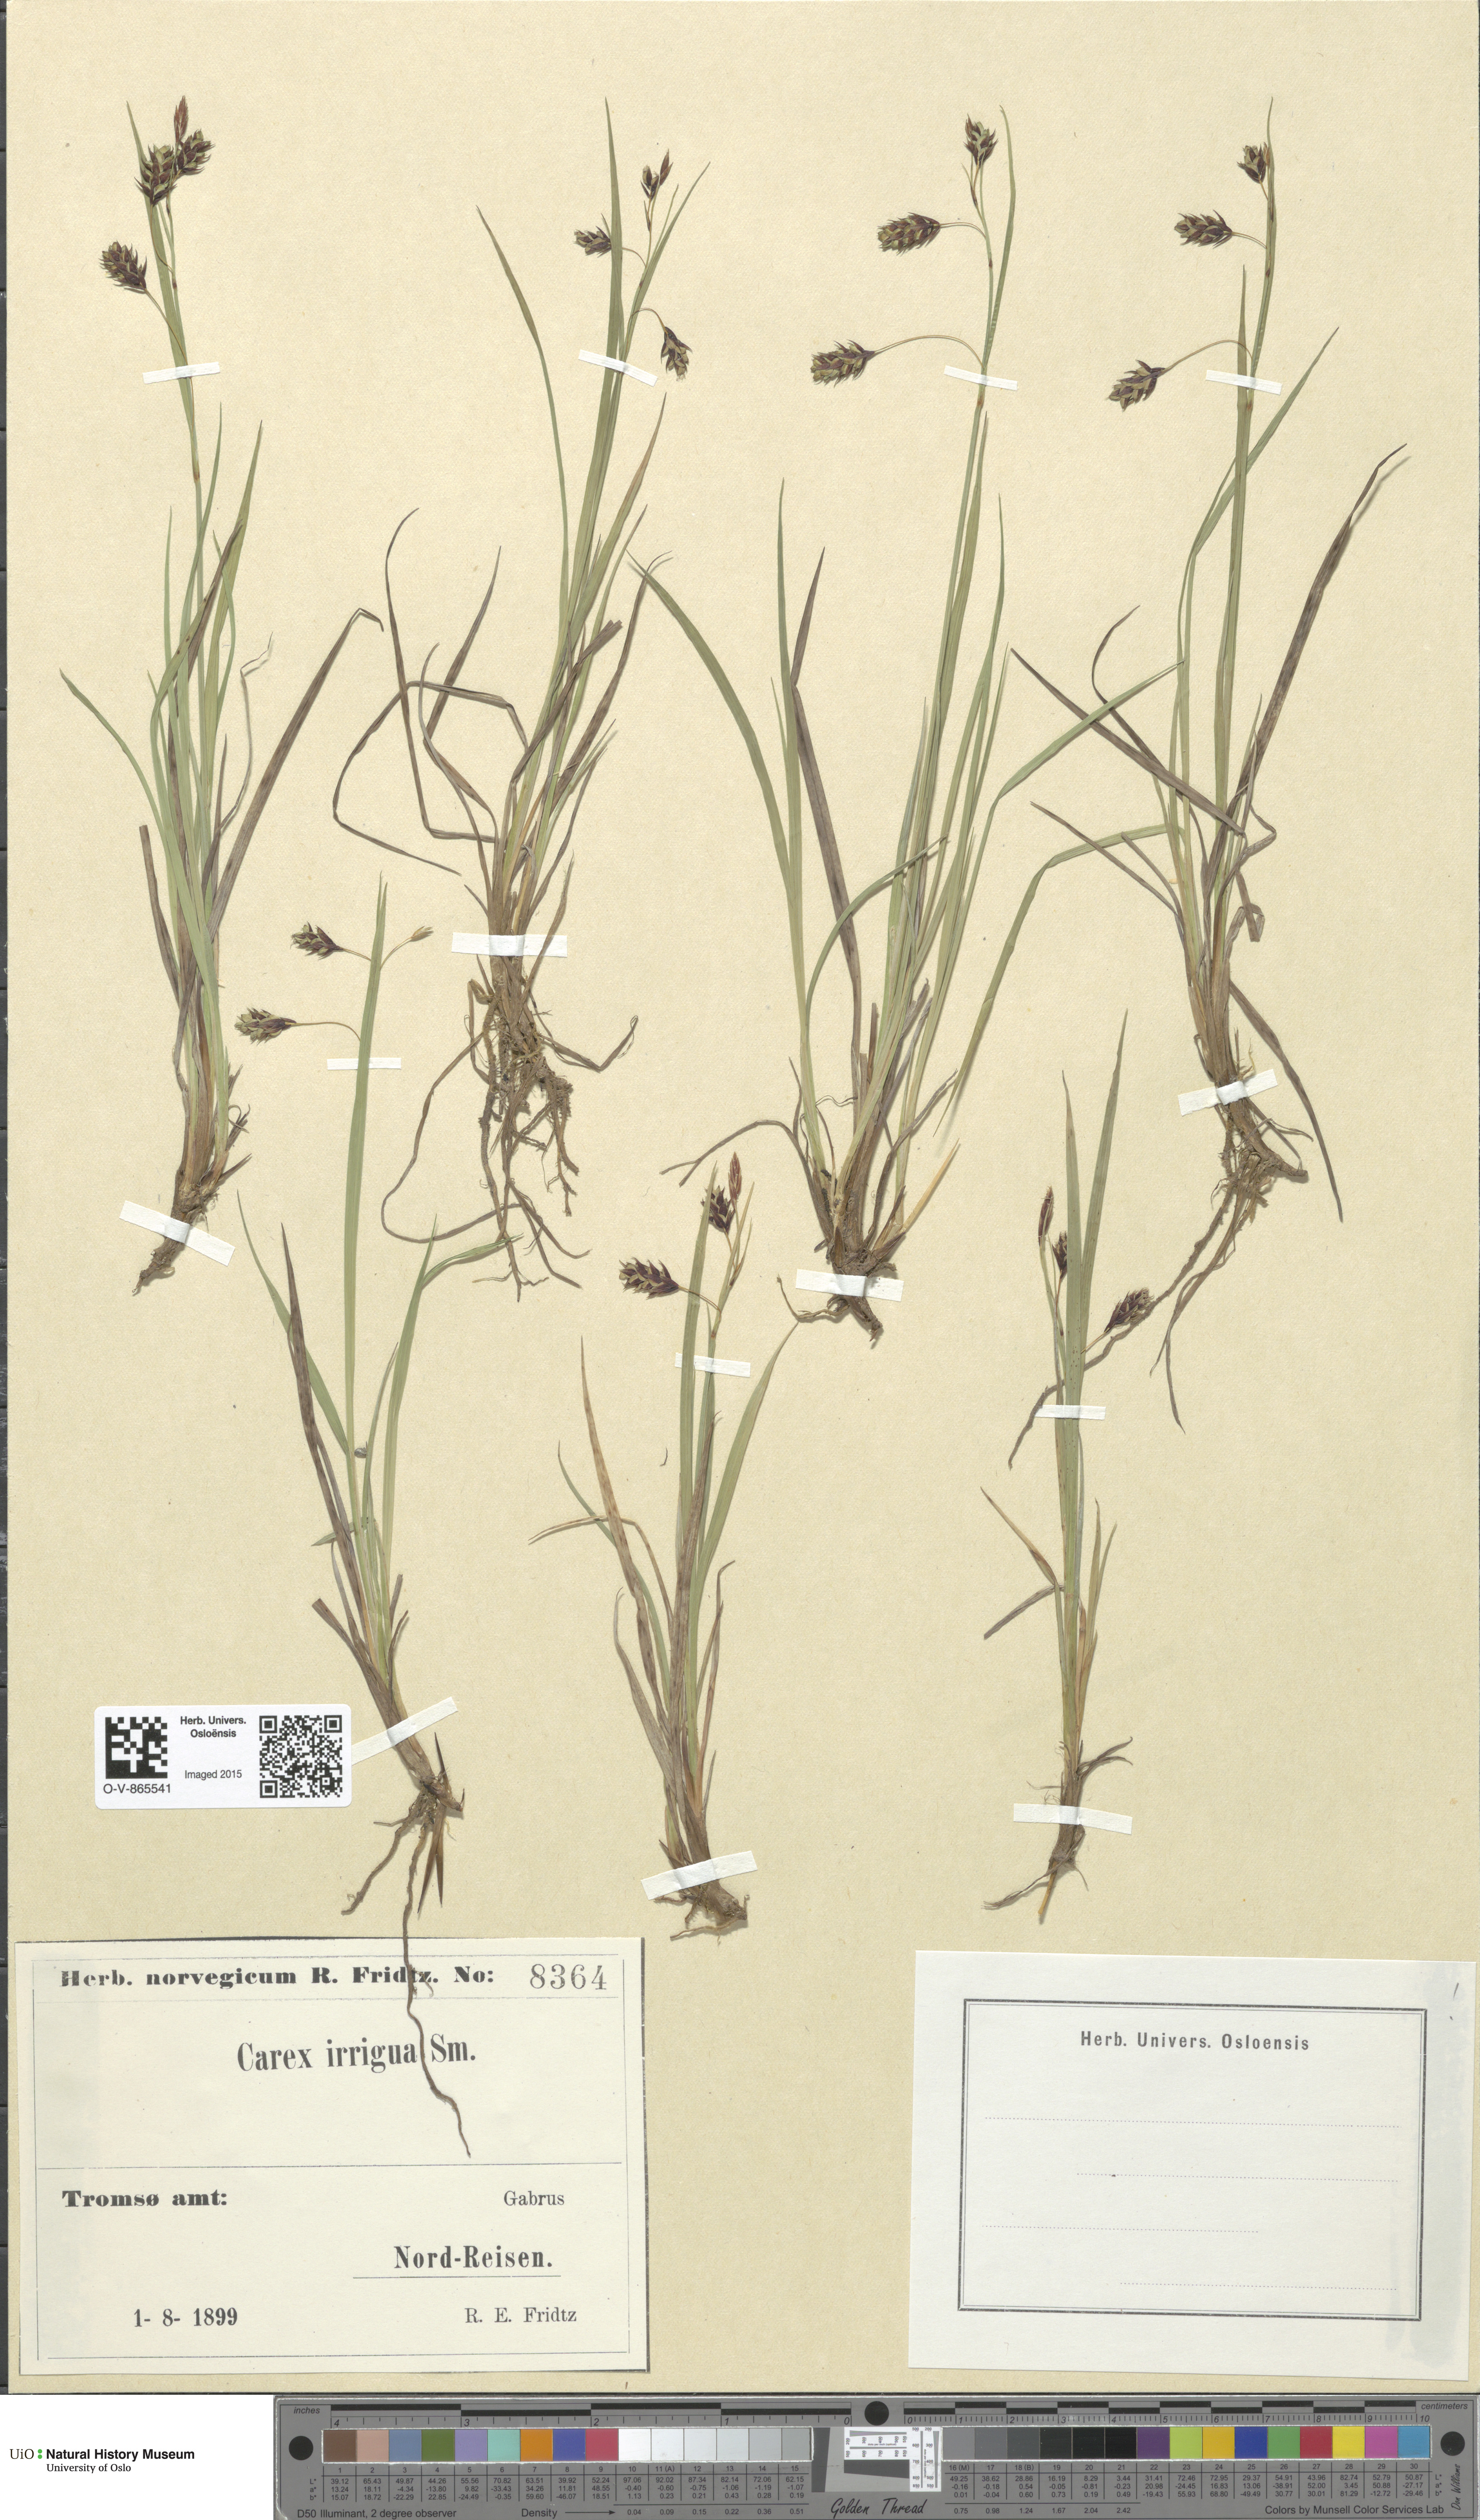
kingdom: Plantae
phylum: Tracheophyta
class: Liliopsida
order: Poales
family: Cyperaceae
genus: Carex
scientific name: Carex magellanica
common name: Bog sedge
